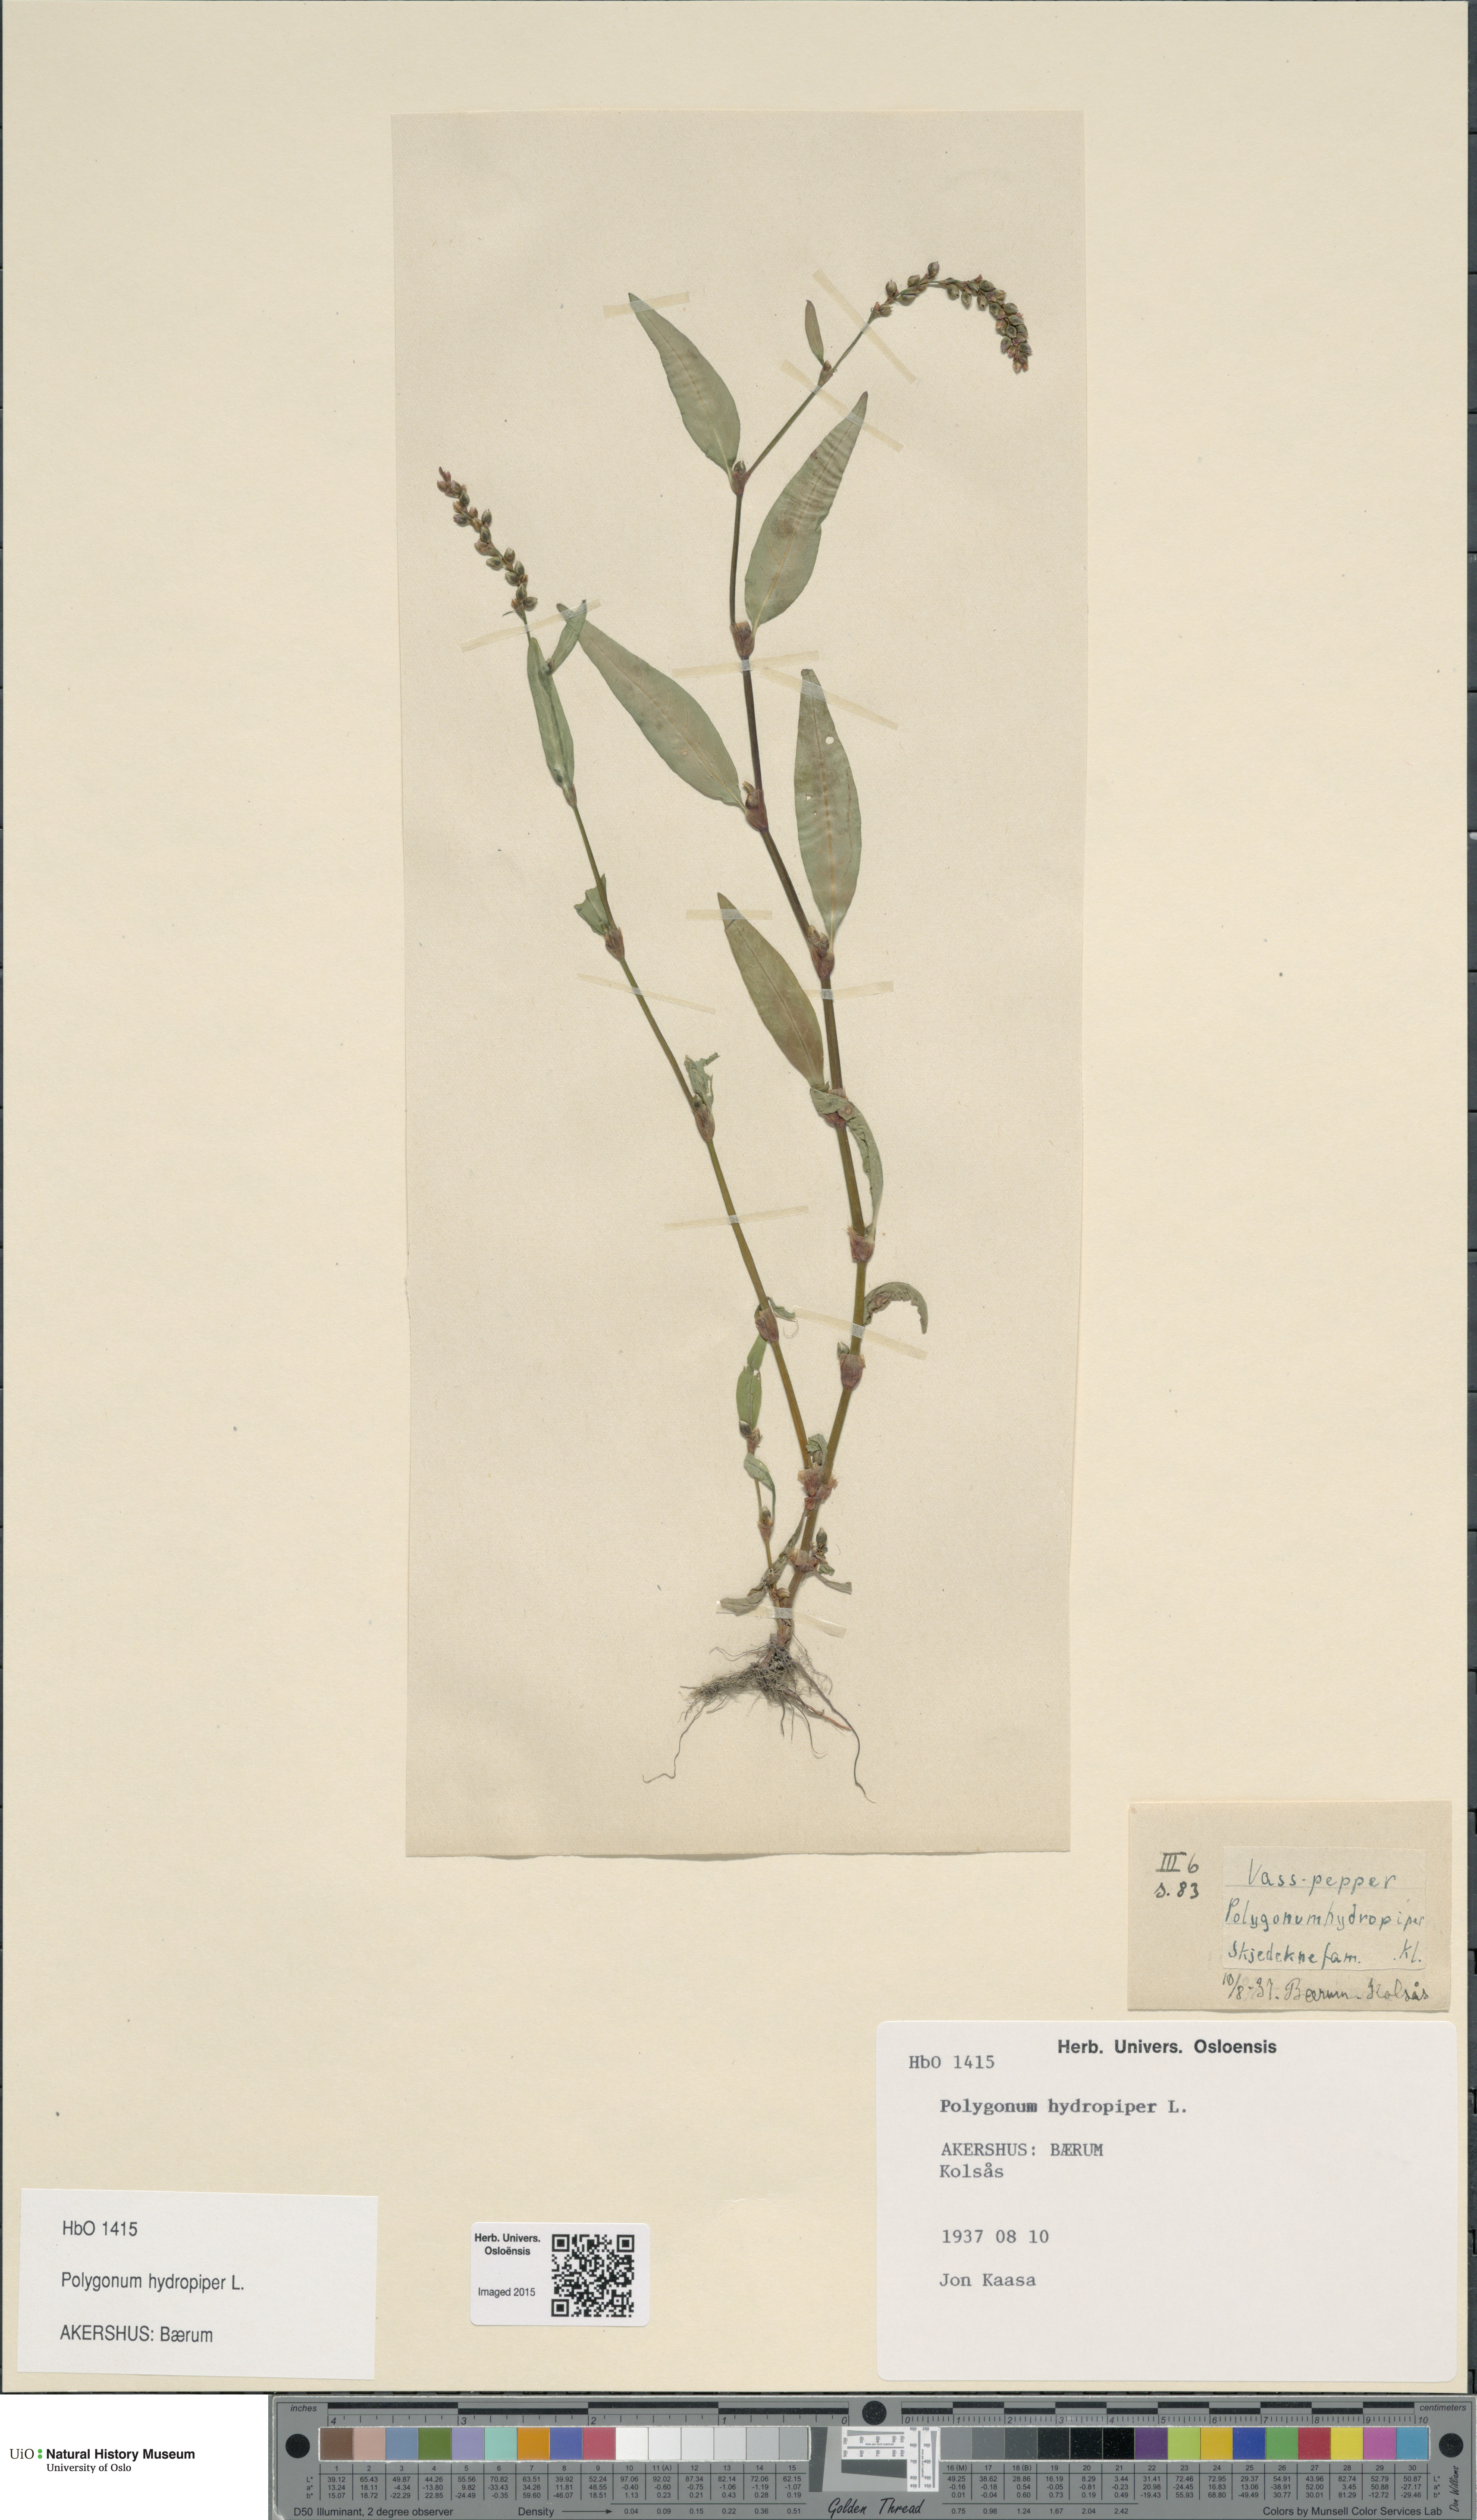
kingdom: Plantae
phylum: Tracheophyta
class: Magnoliopsida
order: Caryophyllales
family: Polygonaceae
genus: Persicaria
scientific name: Persicaria hydropiper
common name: Water-pepper
